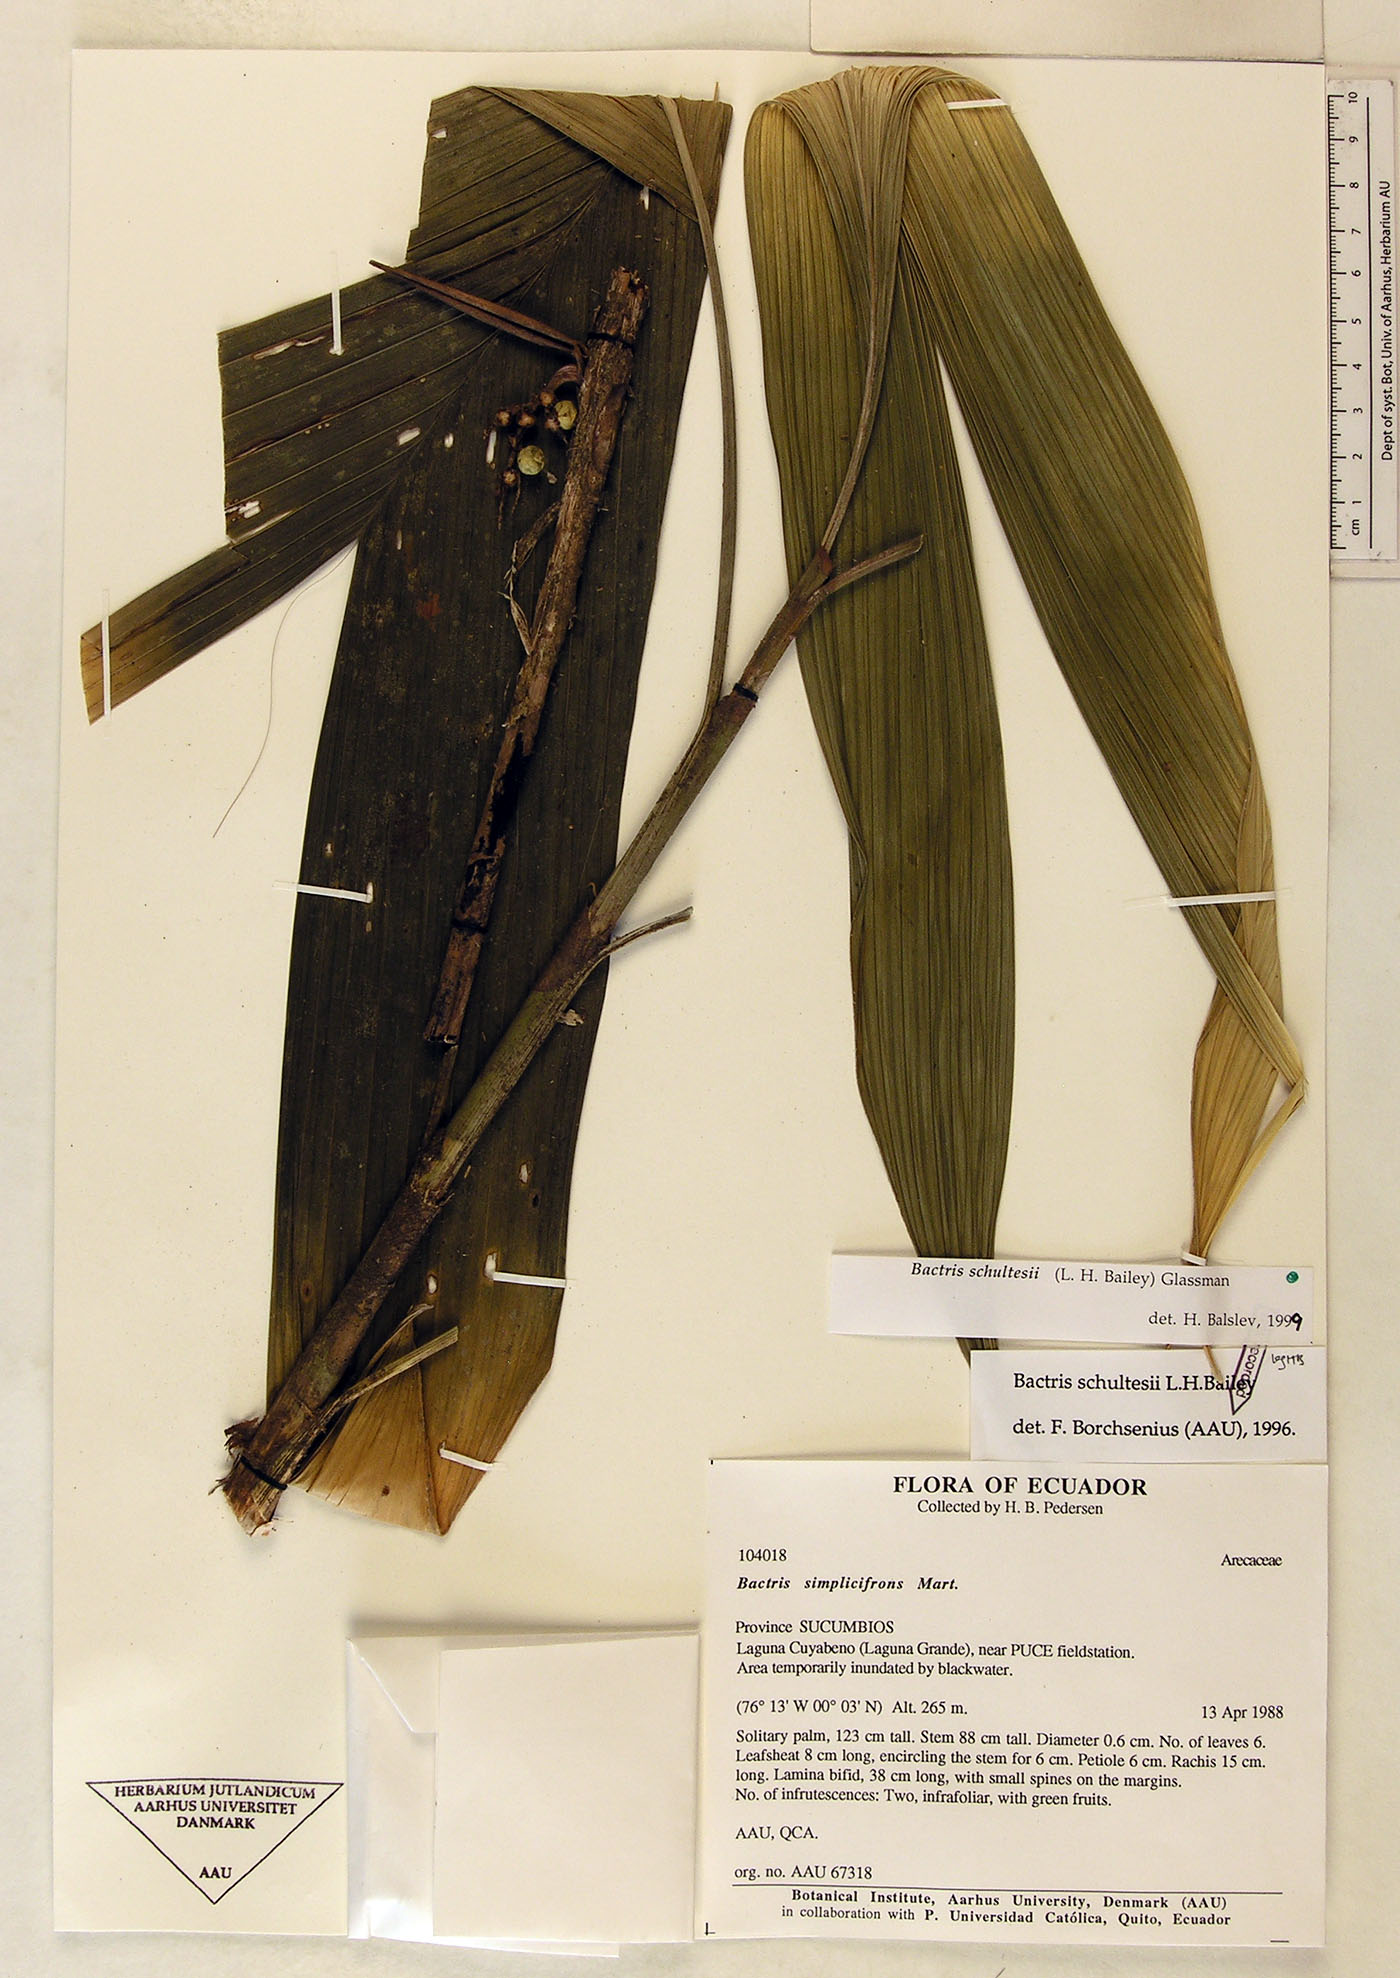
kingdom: Plantae
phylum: Tracheophyta
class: Liliopsida
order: Arecales
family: Arecaceae
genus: Bactris
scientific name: Bactris schultesii
